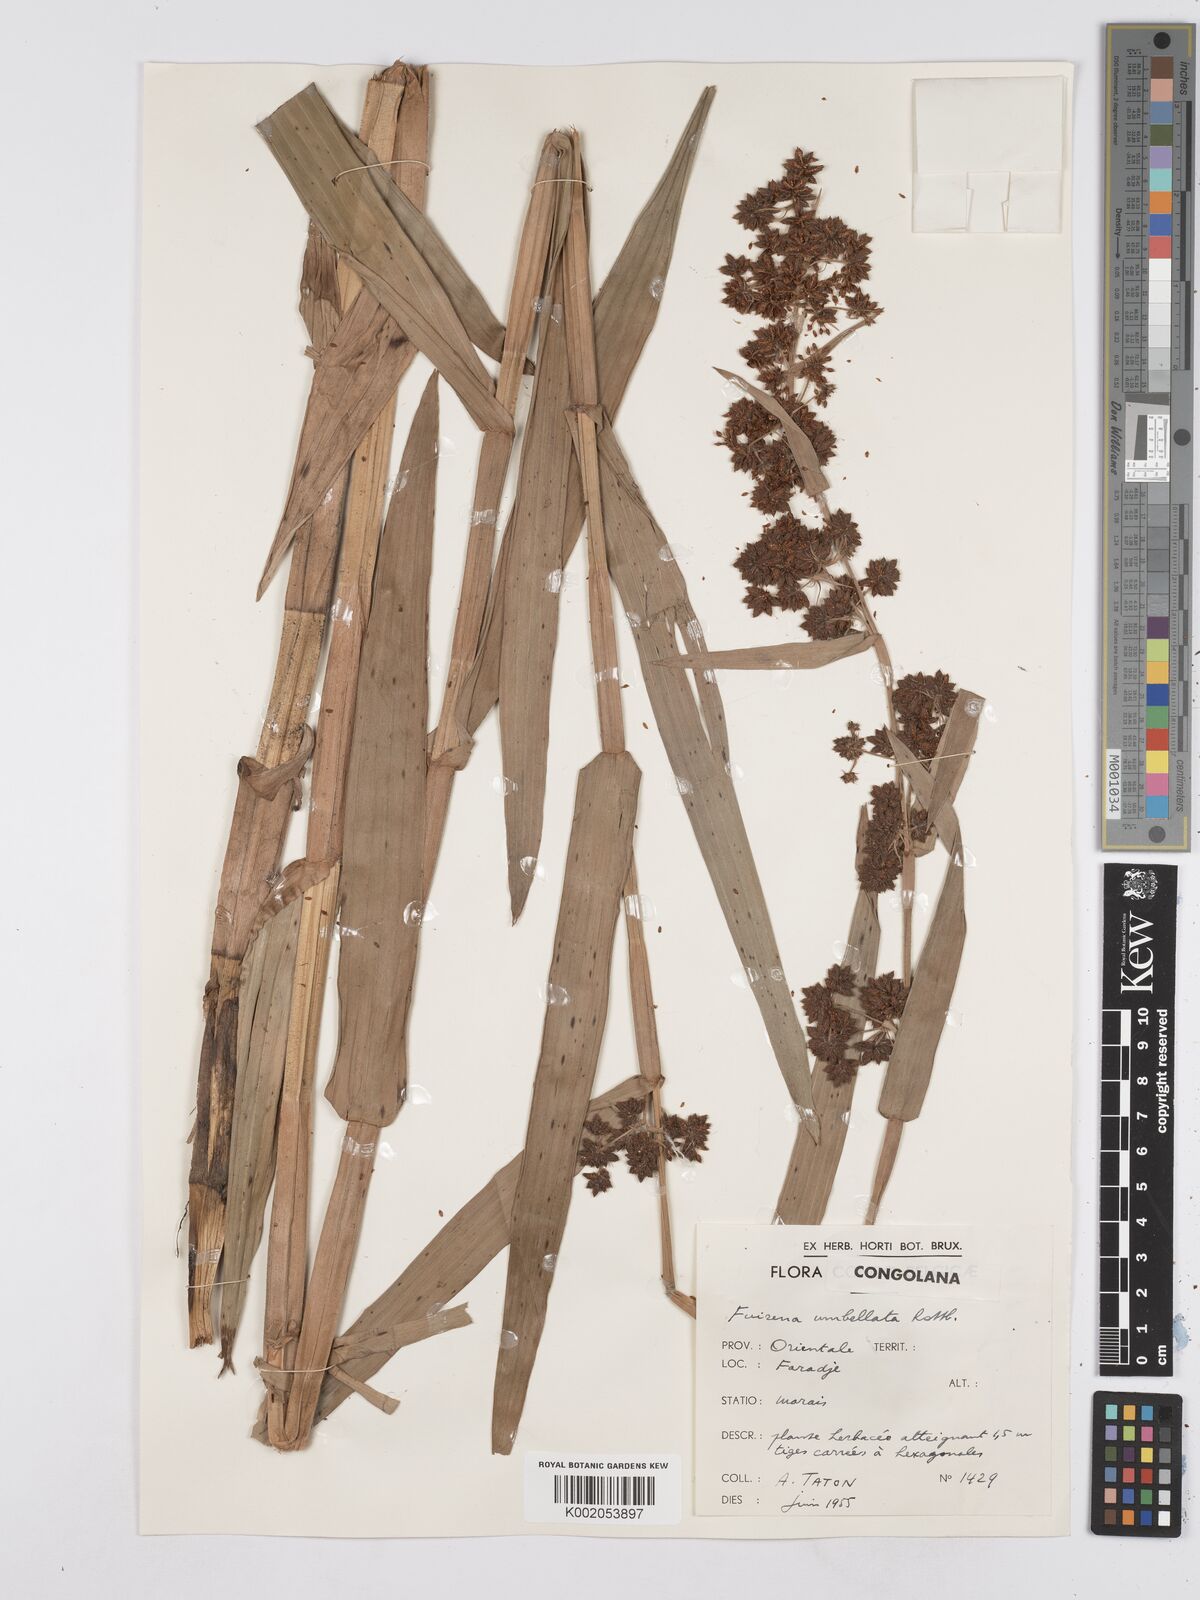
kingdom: Plantae
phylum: Tracheophyta
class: Liliopsida
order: Poales
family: Cyperaceae
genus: Fuirena
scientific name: Fuirena umbellata
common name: Yefen
